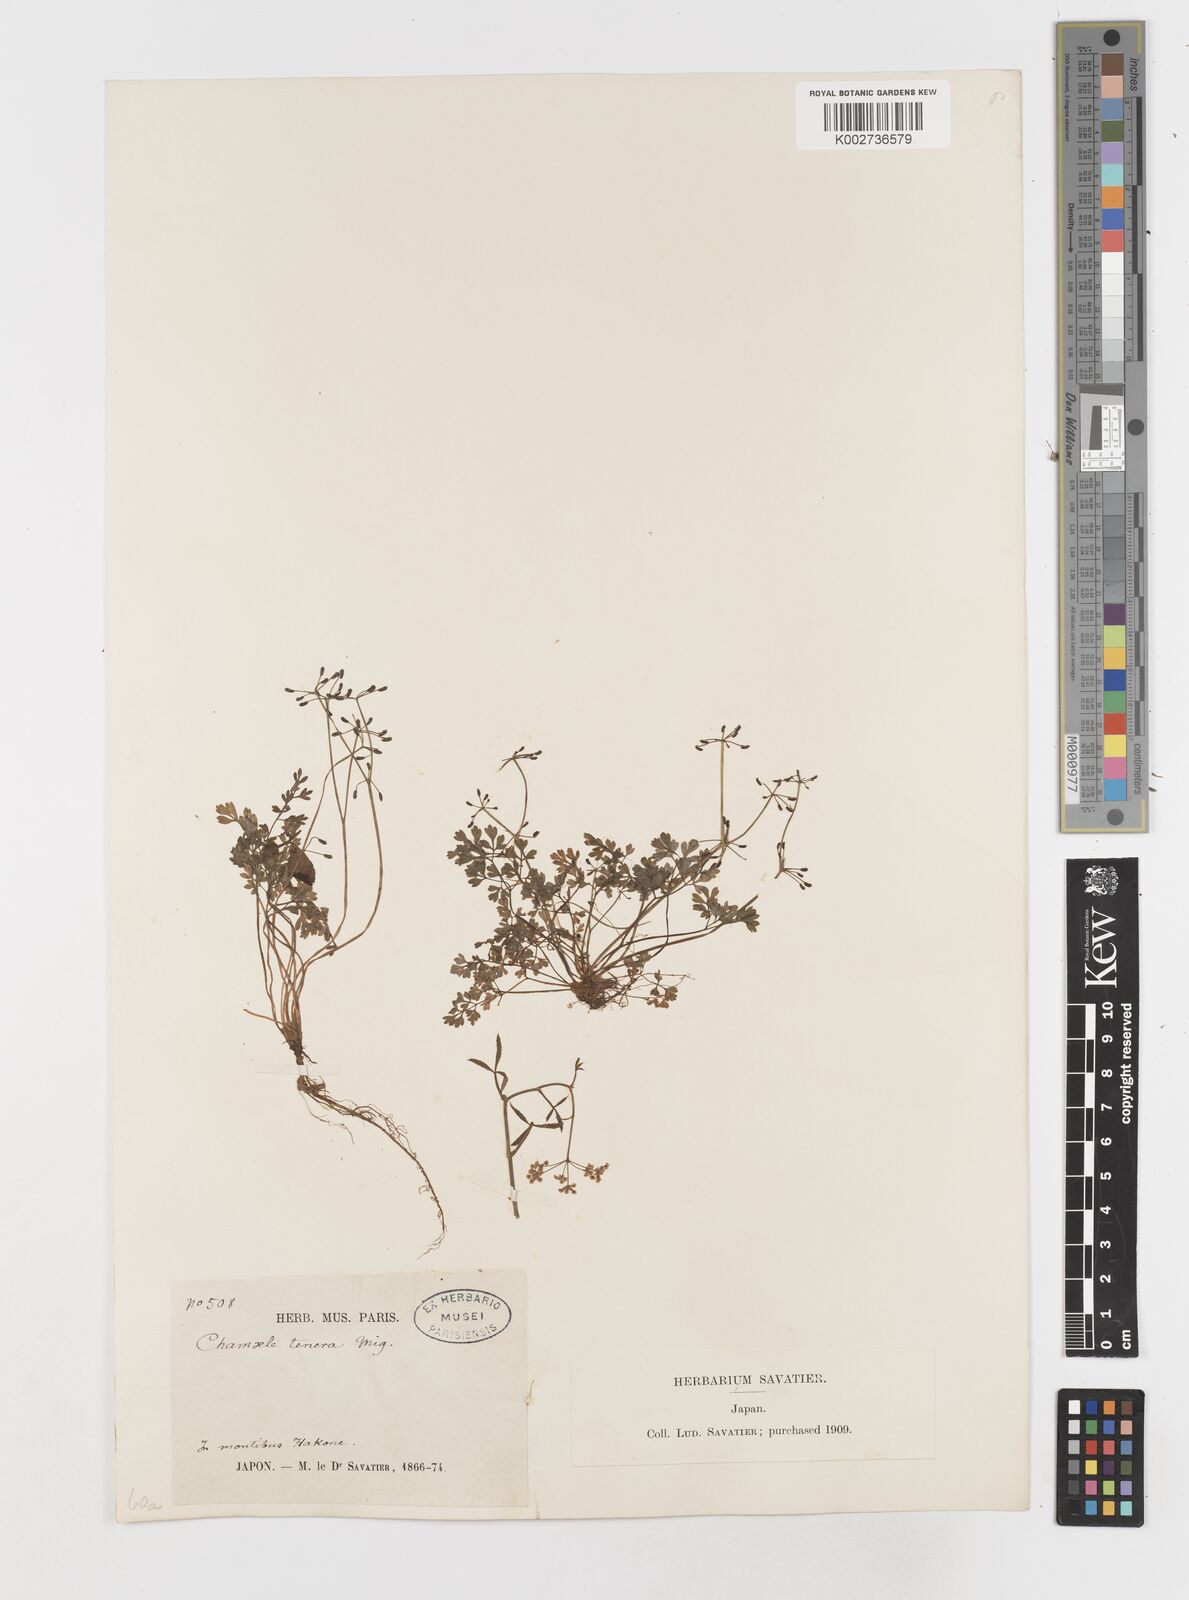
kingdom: Plantae
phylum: Tracheophyta
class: Magnoliopsida
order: Apiales
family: Apiaceae
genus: Aegopodium
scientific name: Aegopodium decumbens
